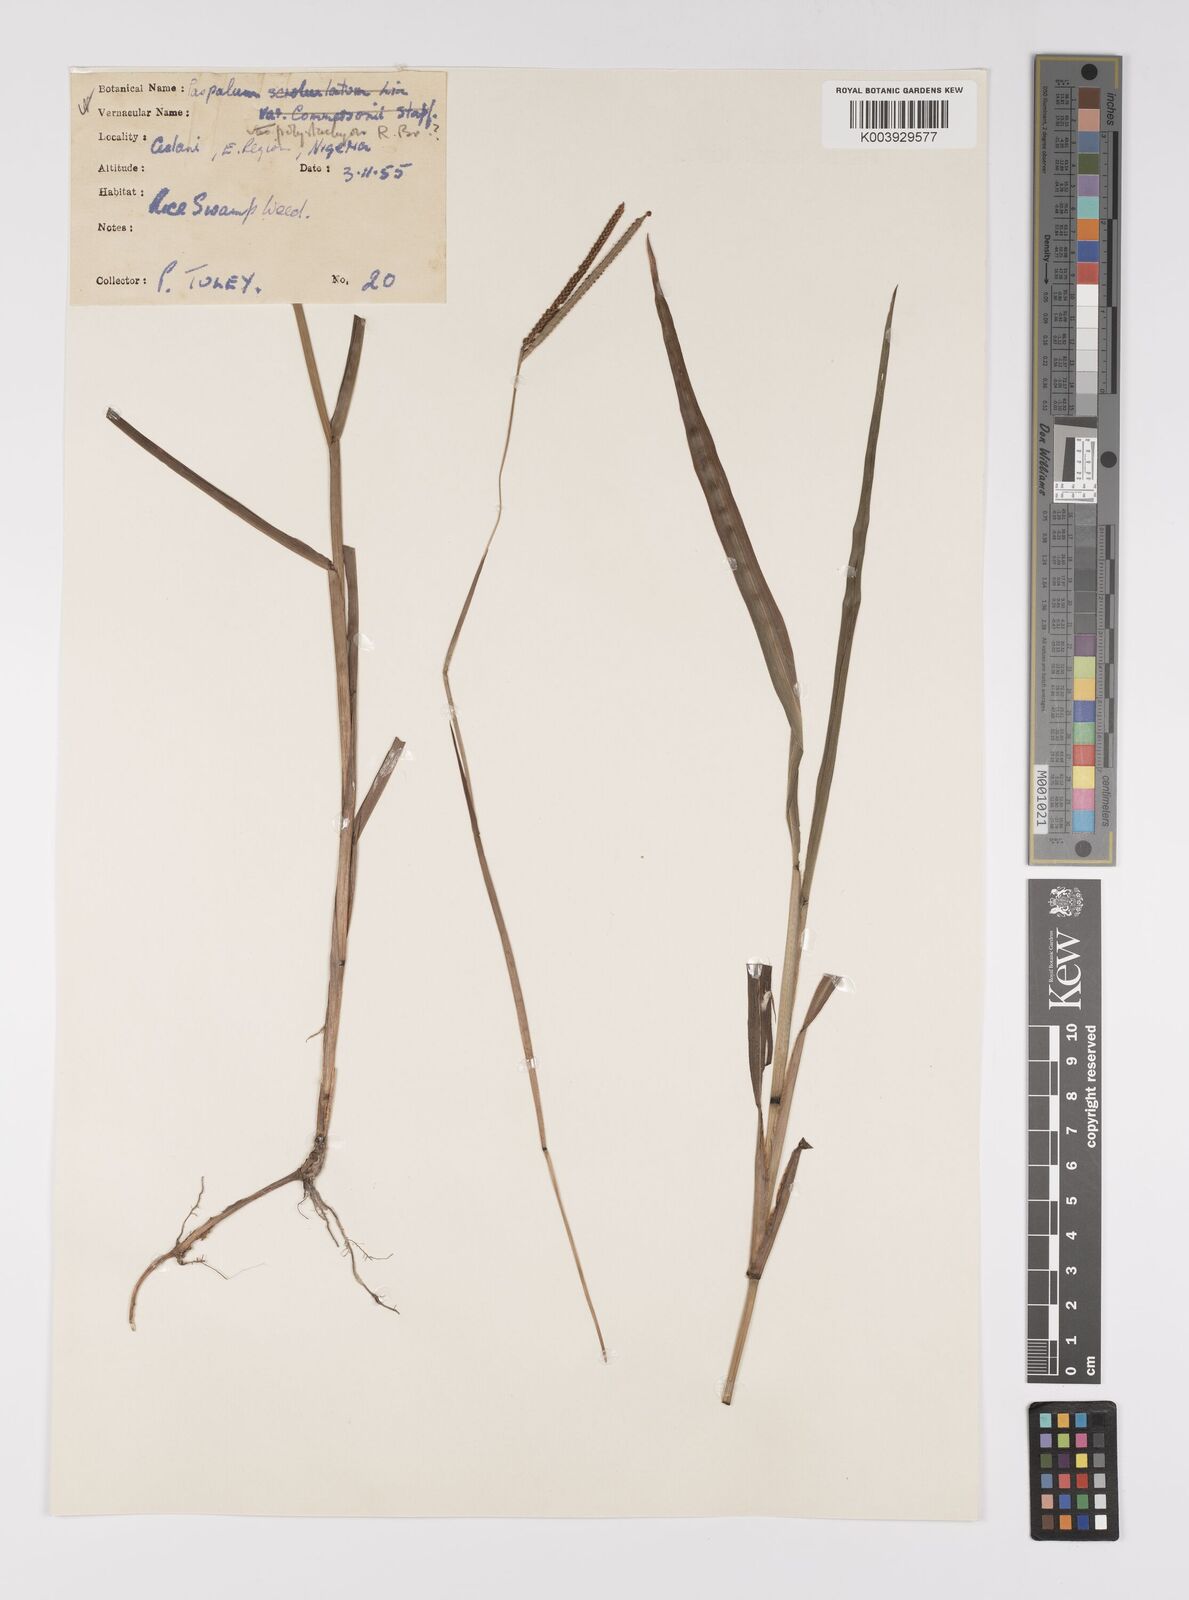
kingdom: Plantae
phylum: Tracheophyta
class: Liliopsida
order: Poales
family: Poaceae
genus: Paspalum
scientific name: Paspalum scrobiculatum
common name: Kodo millet
